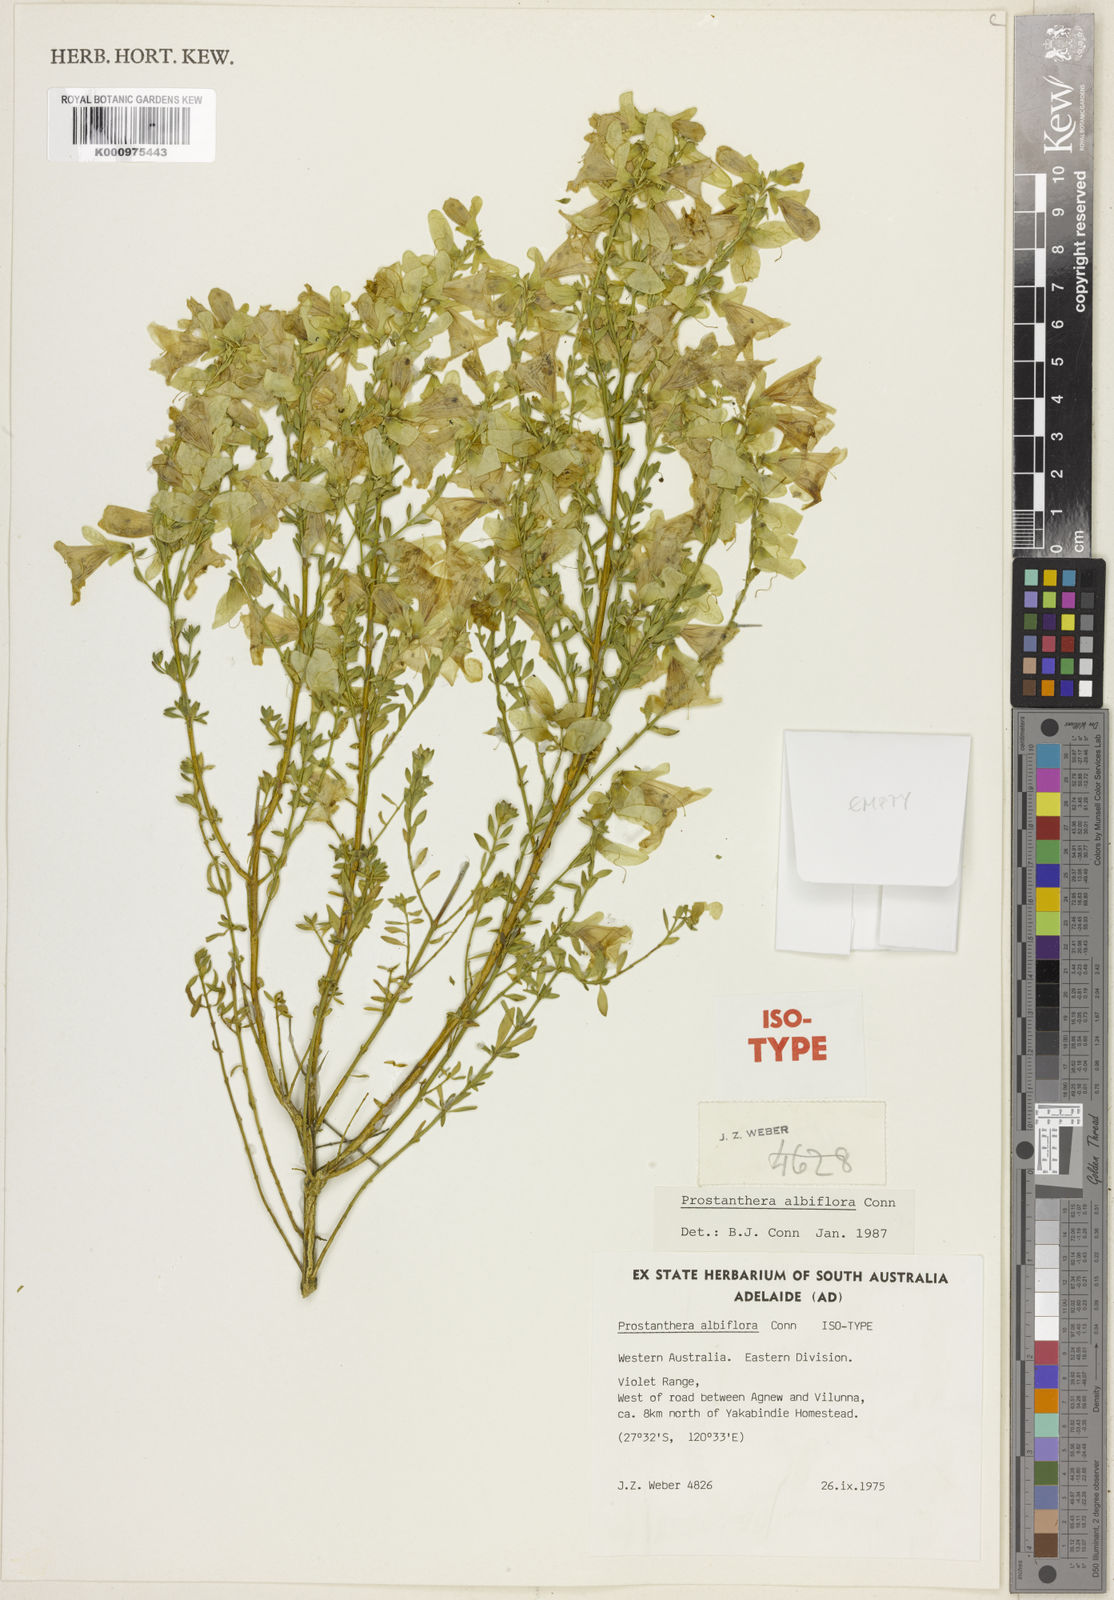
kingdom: Plantae
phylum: Tracheophyta
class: Magnoliopsida
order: Lamiales
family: Lamiaceae
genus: Prostanthera
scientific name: Prostanthera albiflora
